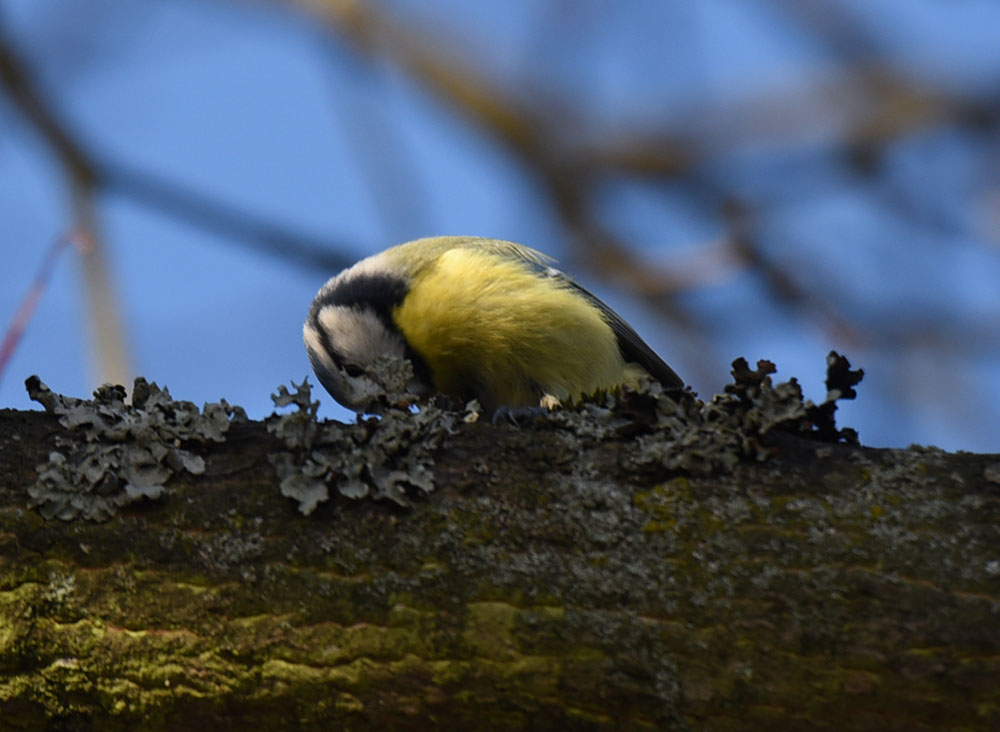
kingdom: Animalia
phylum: Chordata
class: Aves
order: Passeriformes
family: Paridae
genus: Cyanistes
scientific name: Cyanistes caeruleus
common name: Eurasian blue tit
